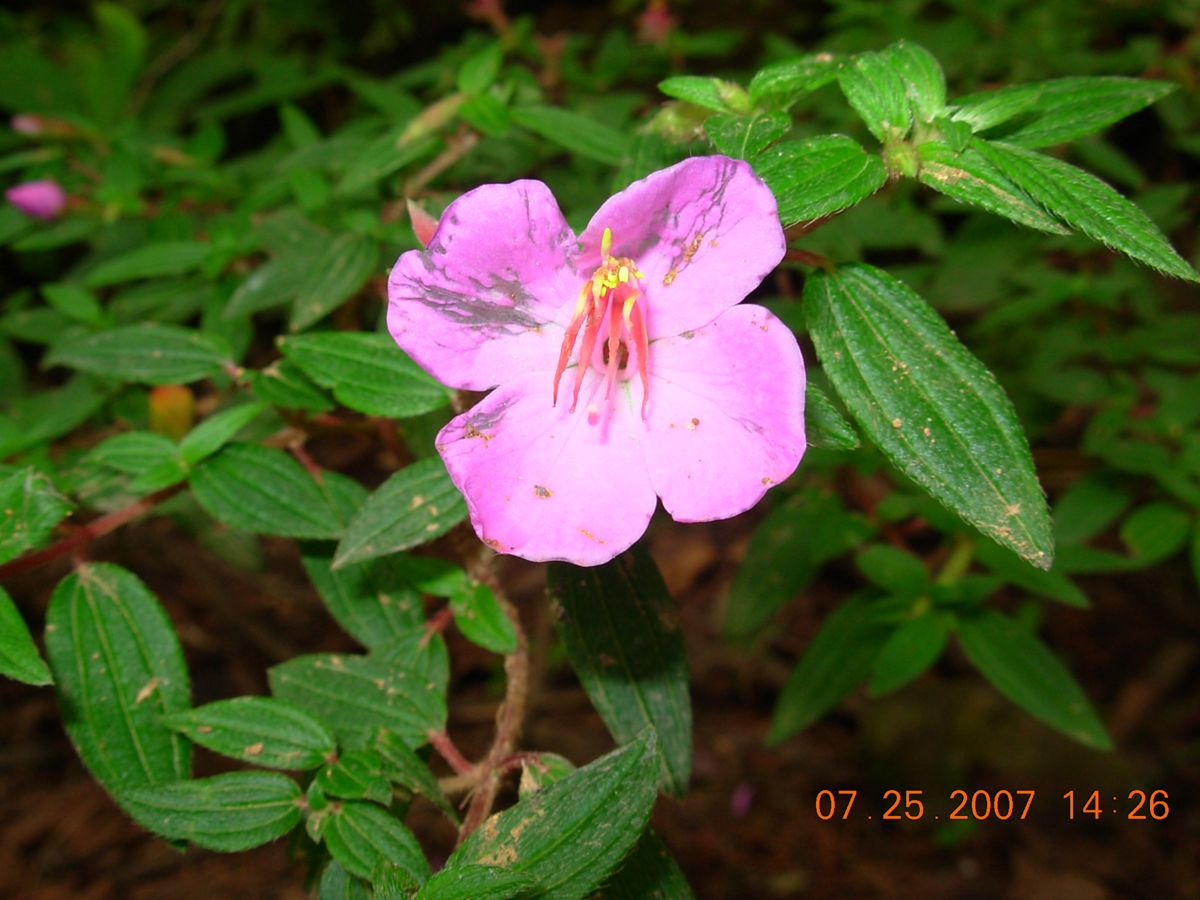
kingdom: Plantae
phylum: Tracheophyta
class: Magnoliopsida
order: Myrtales
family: Melastomataceae
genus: Monochaetum
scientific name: Monochaetum glanduliferum
